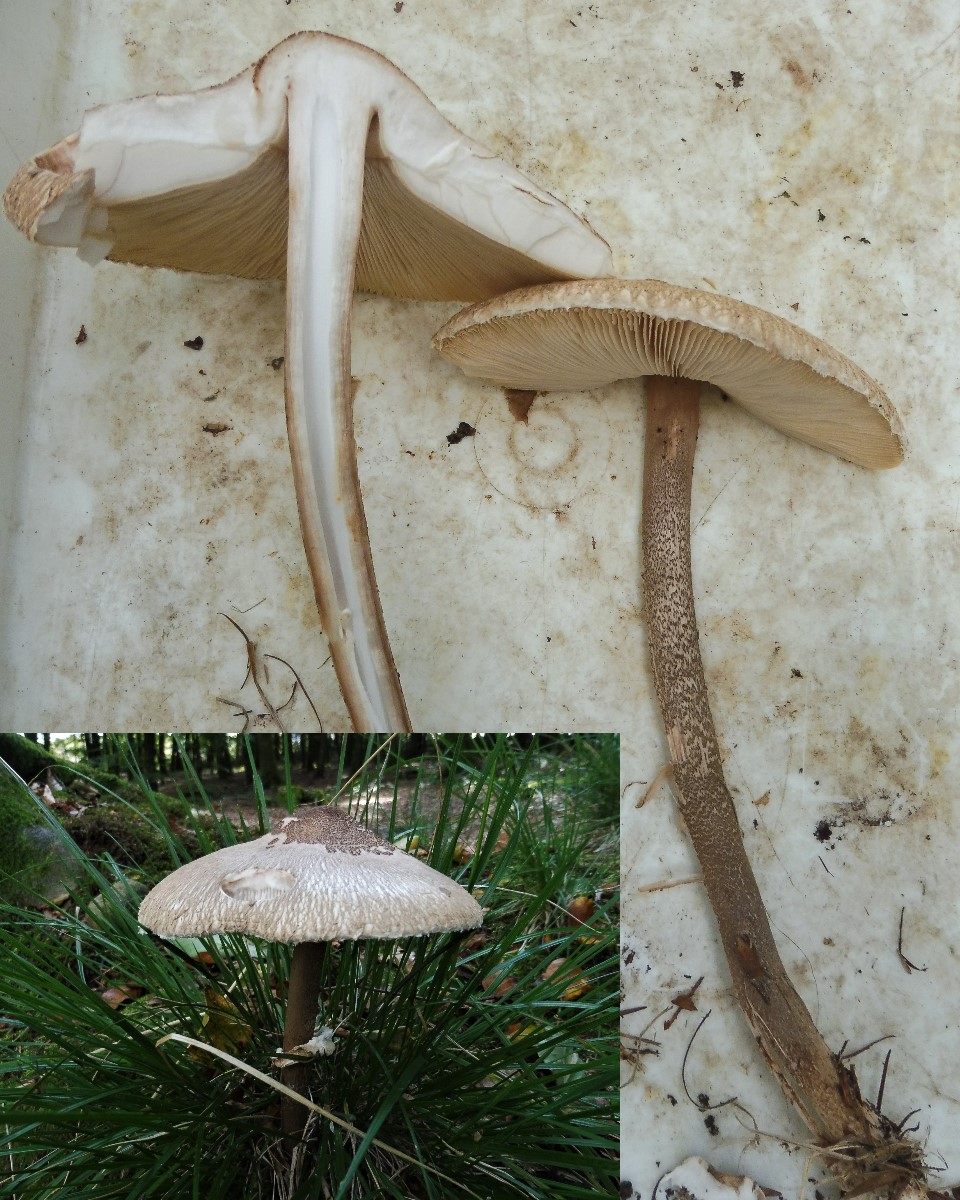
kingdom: Fungi
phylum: Basidiomycota
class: Agaricomycetes
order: Agaricales
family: Agaricaceae
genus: Macrolepiota
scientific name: Macrolepiota
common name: kæmpeparasolhat
